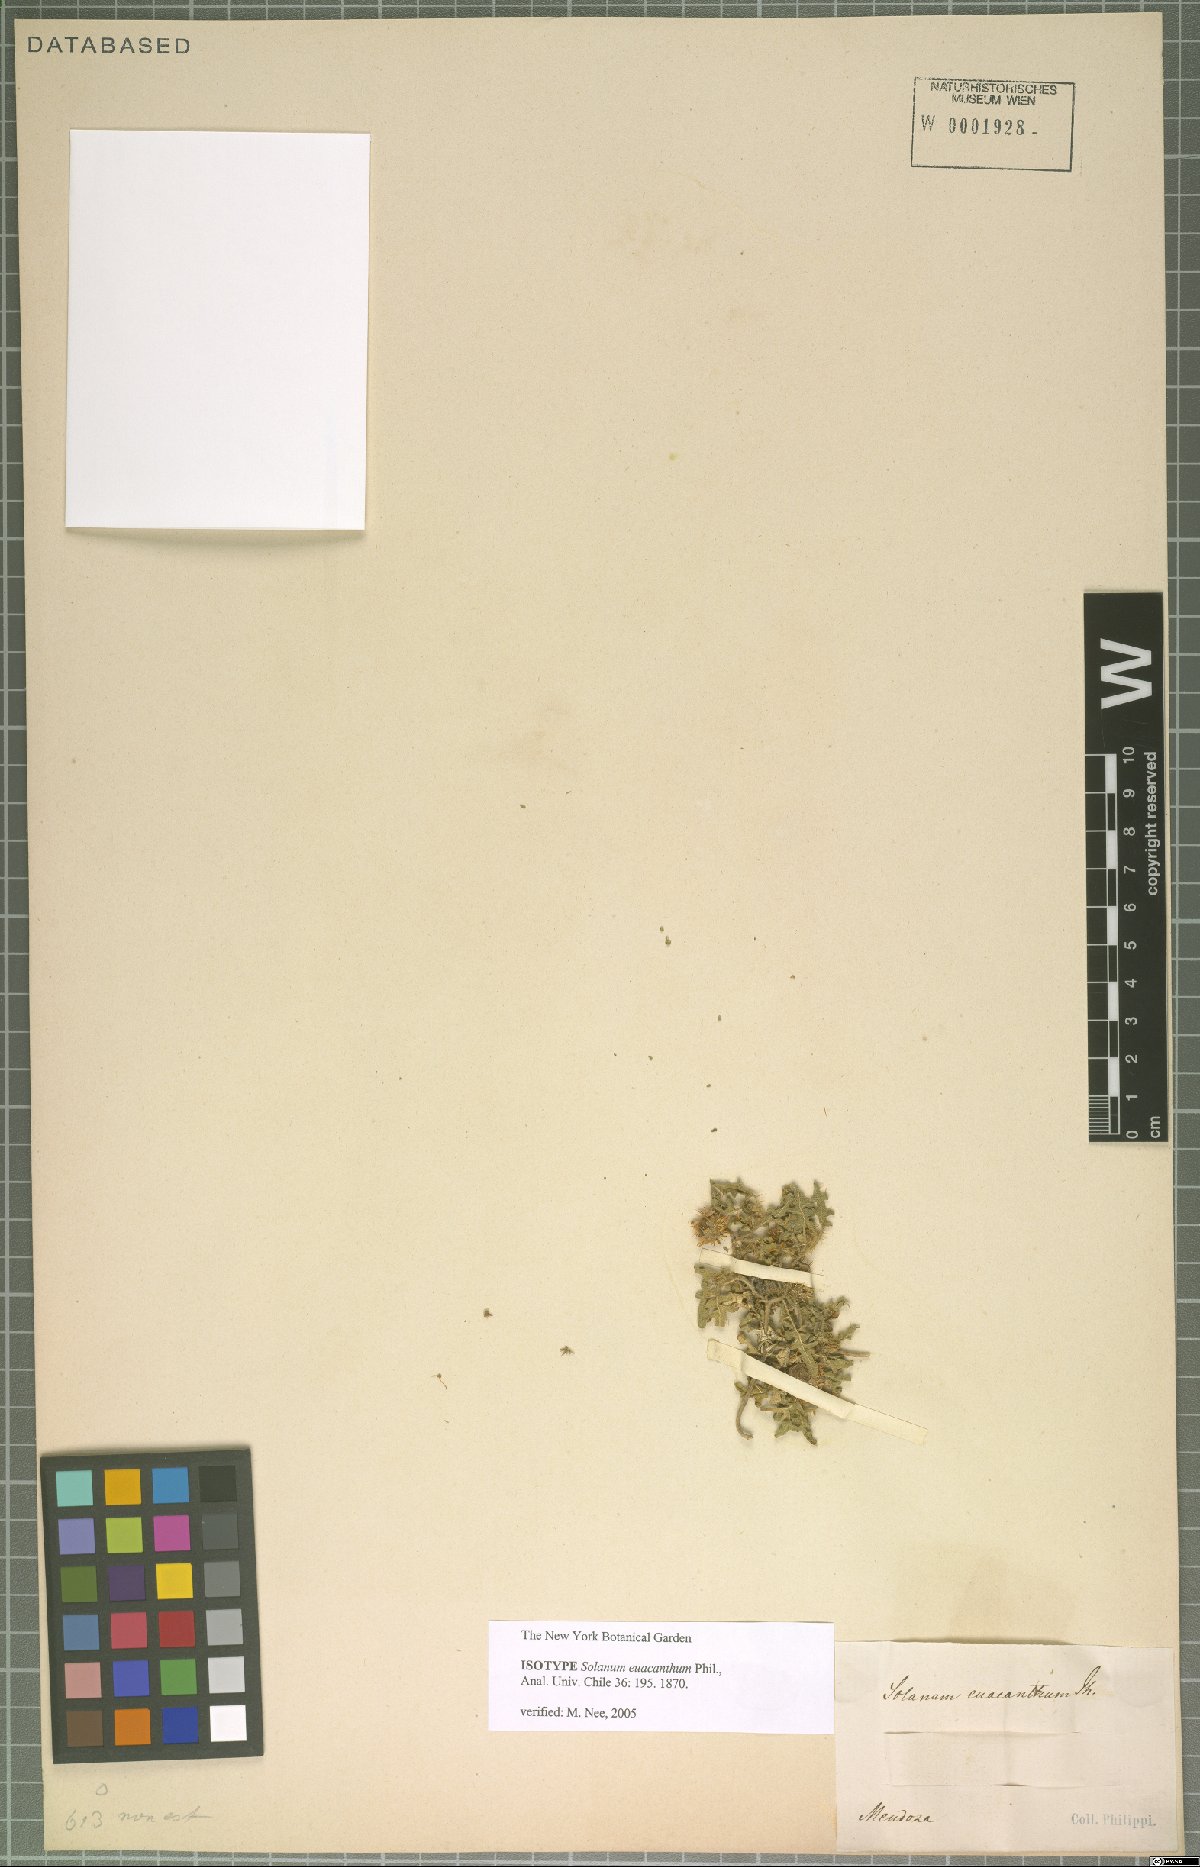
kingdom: Plantae
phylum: Tracheophyta
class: Magnoliopsida
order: Solanales
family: Solanaceae
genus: Solanum
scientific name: Solanum euacanthum
